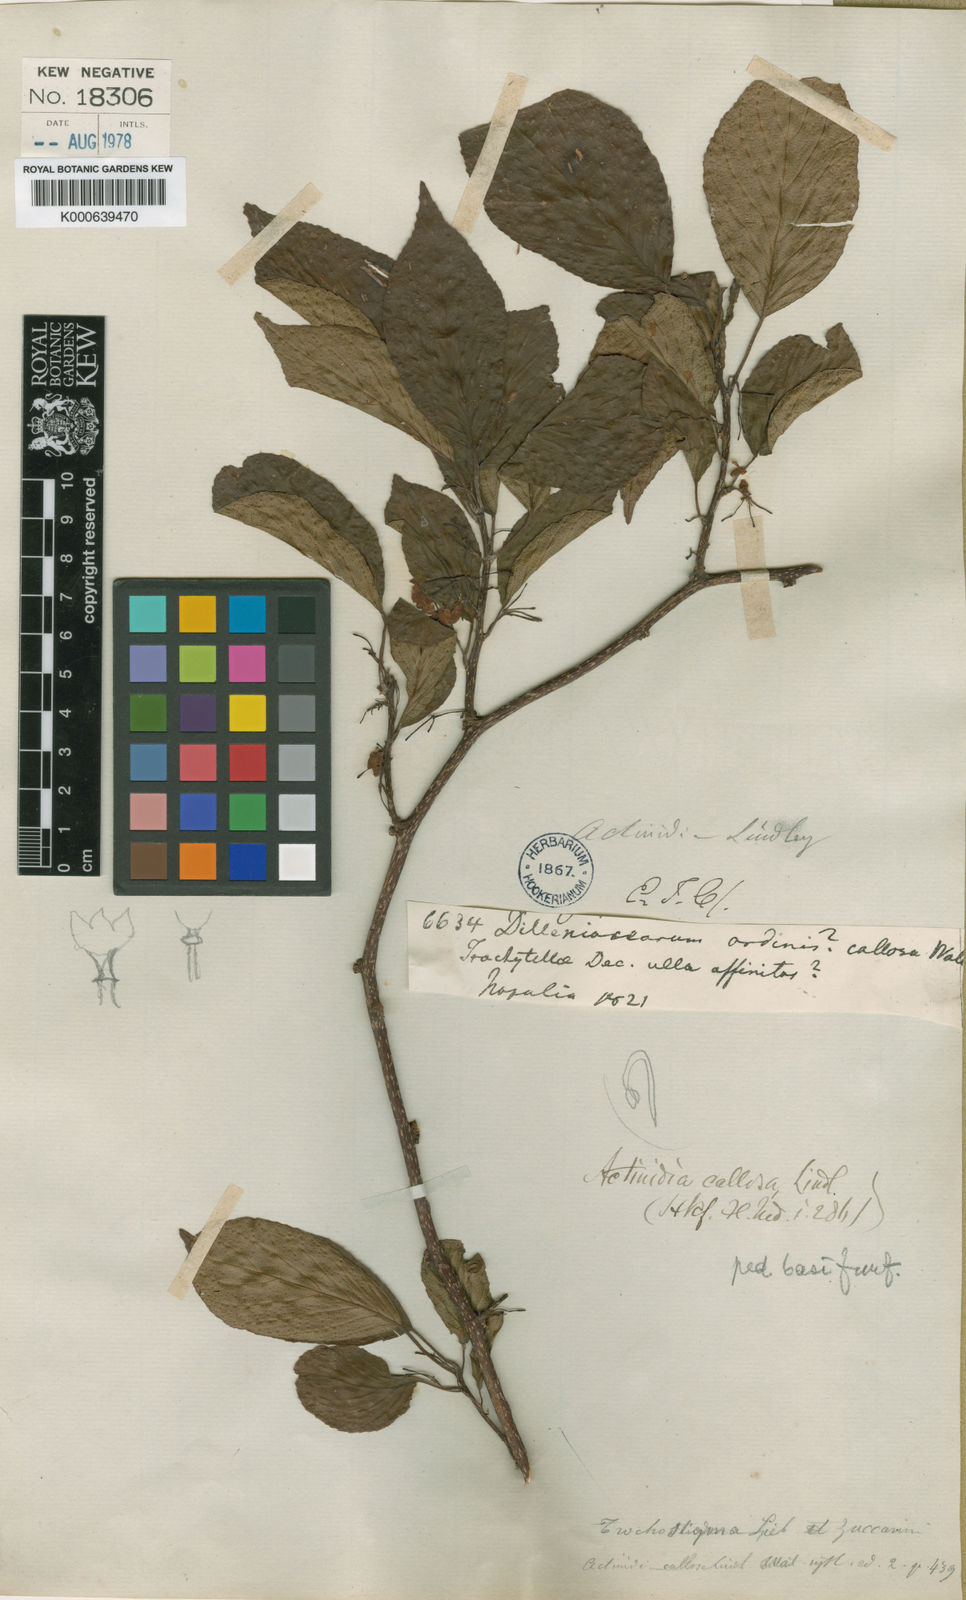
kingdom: Plantae
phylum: Tracheophyta
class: Magnoliopsida
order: Ericales
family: Actinidiaceae
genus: Actinidia
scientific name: Actinidia callosa
